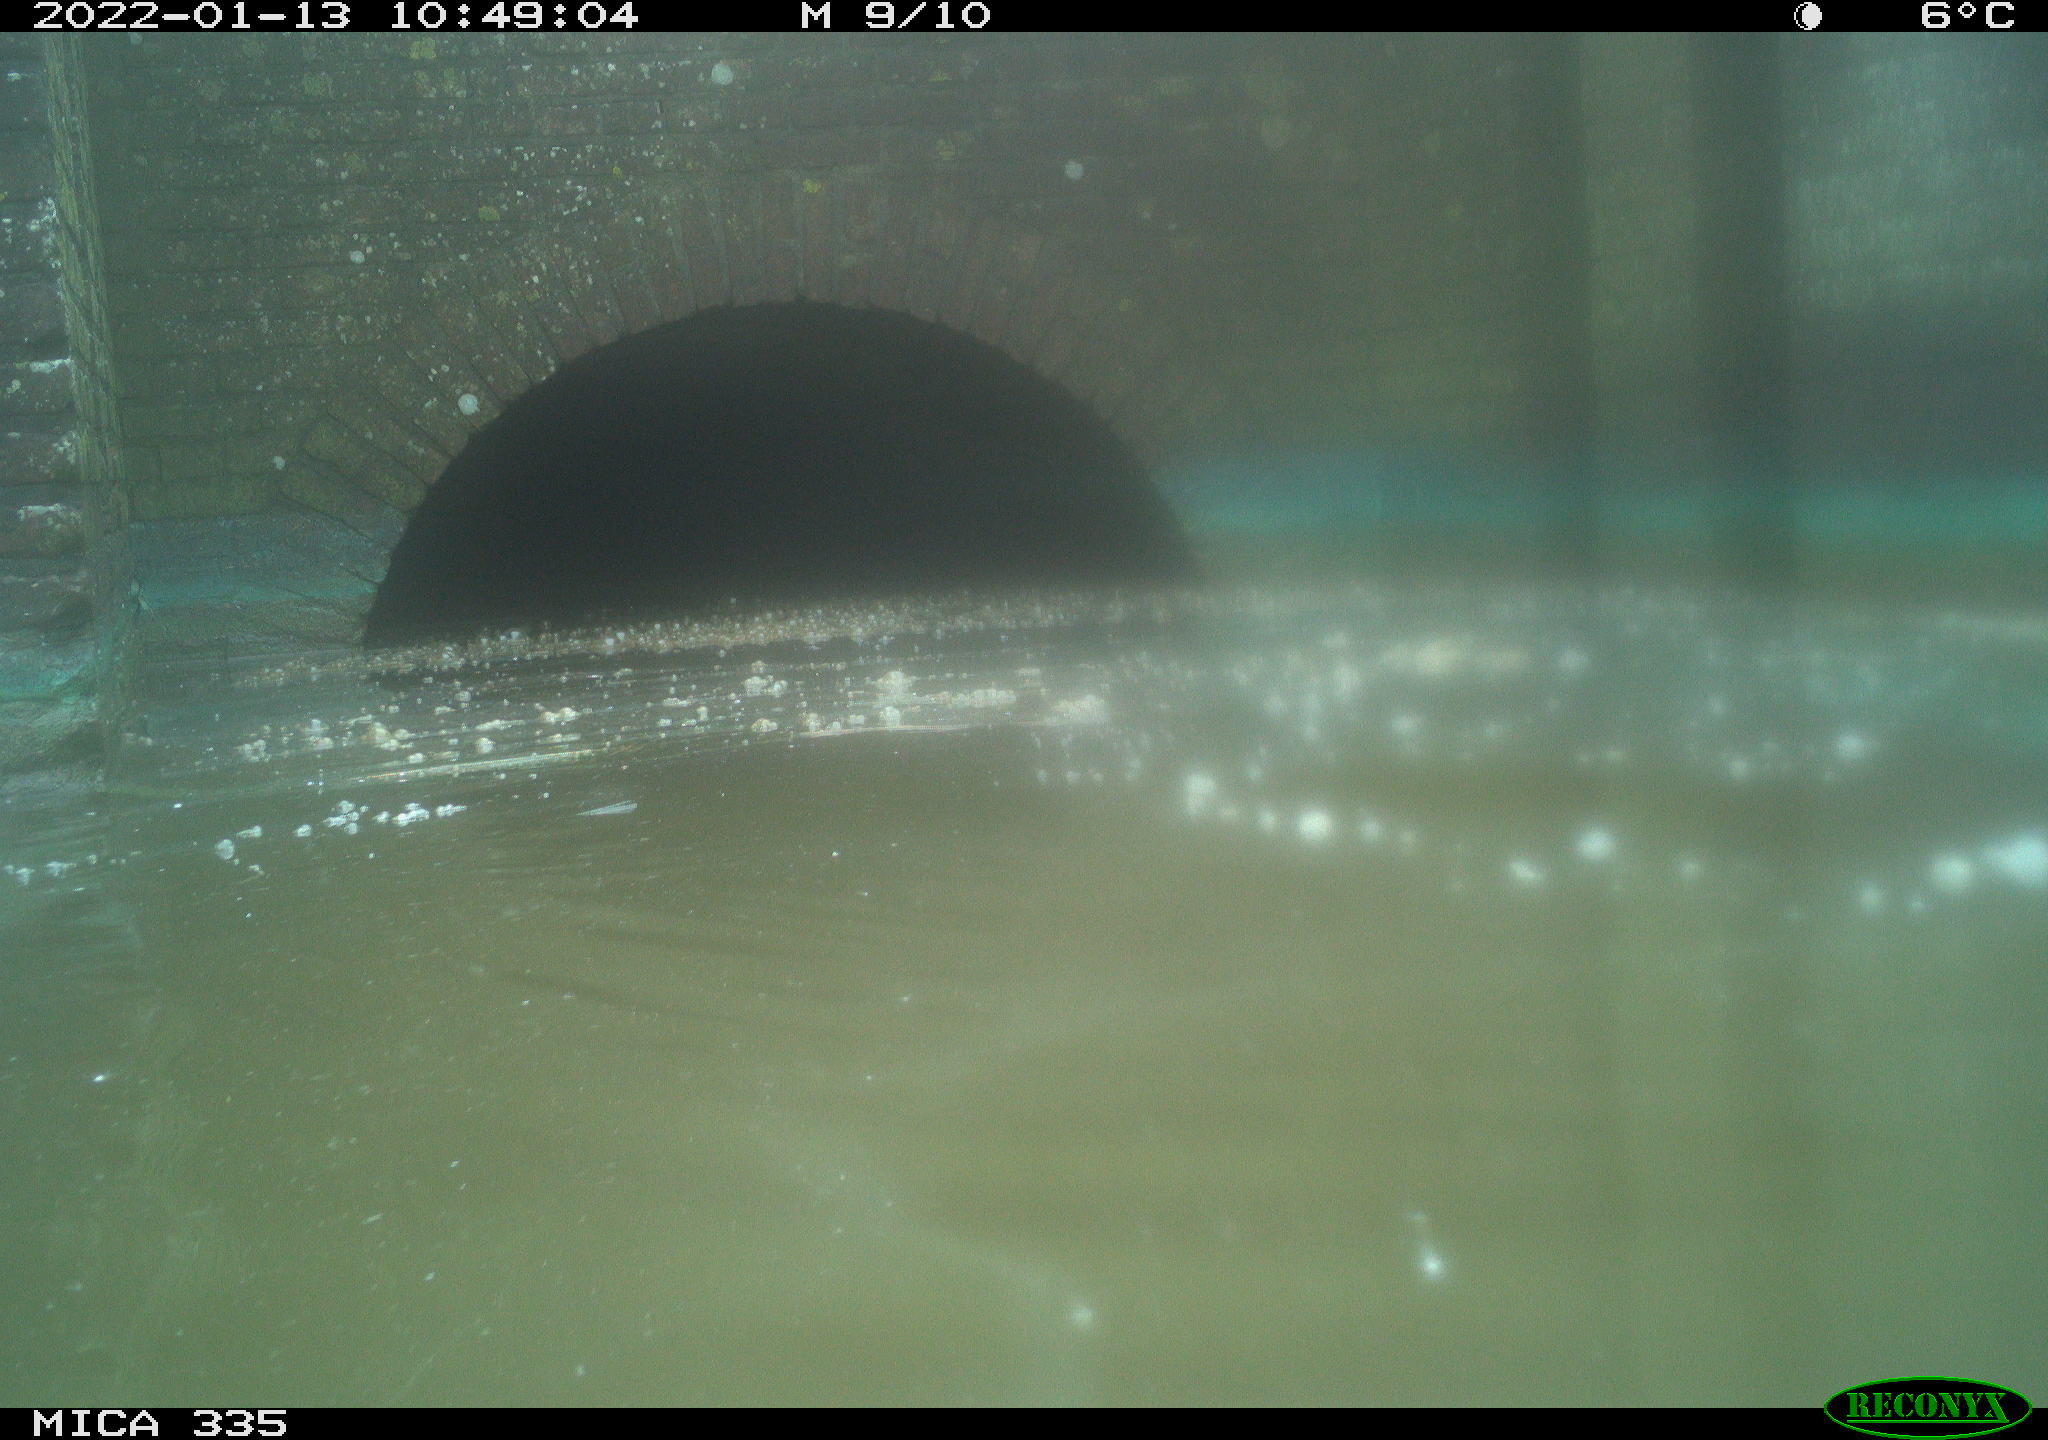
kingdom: Animalia
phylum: Chordata
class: Aves
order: Suliformes
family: Phalacrocoracidae
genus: Phalacrocorax
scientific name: Phalacrocorax carbo
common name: Great cormorant
